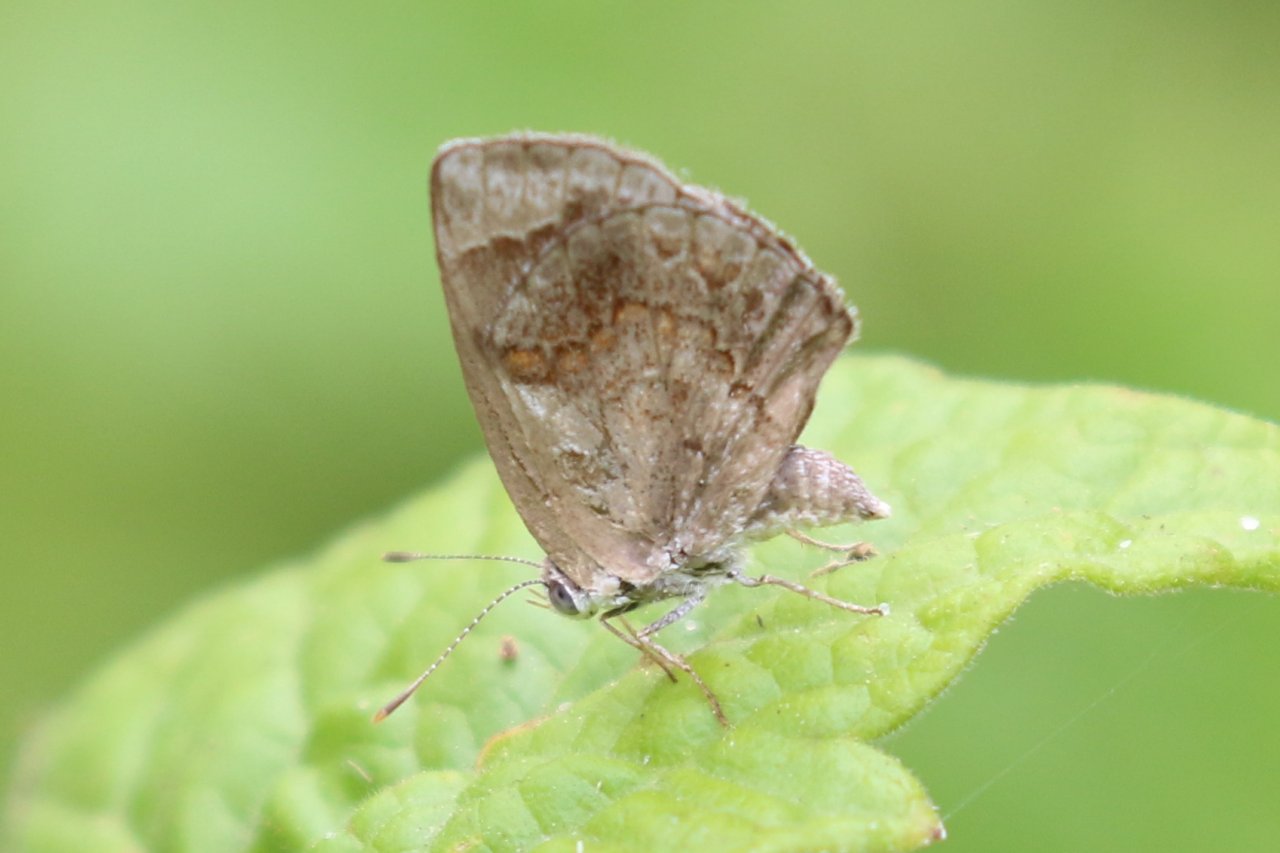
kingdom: Animalia
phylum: Arthropoda
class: Insecta
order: Lepidoptera
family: Lycaenidae
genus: Strymon
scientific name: Strymon bazochii
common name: Lantana Scrub-Hairstreak
